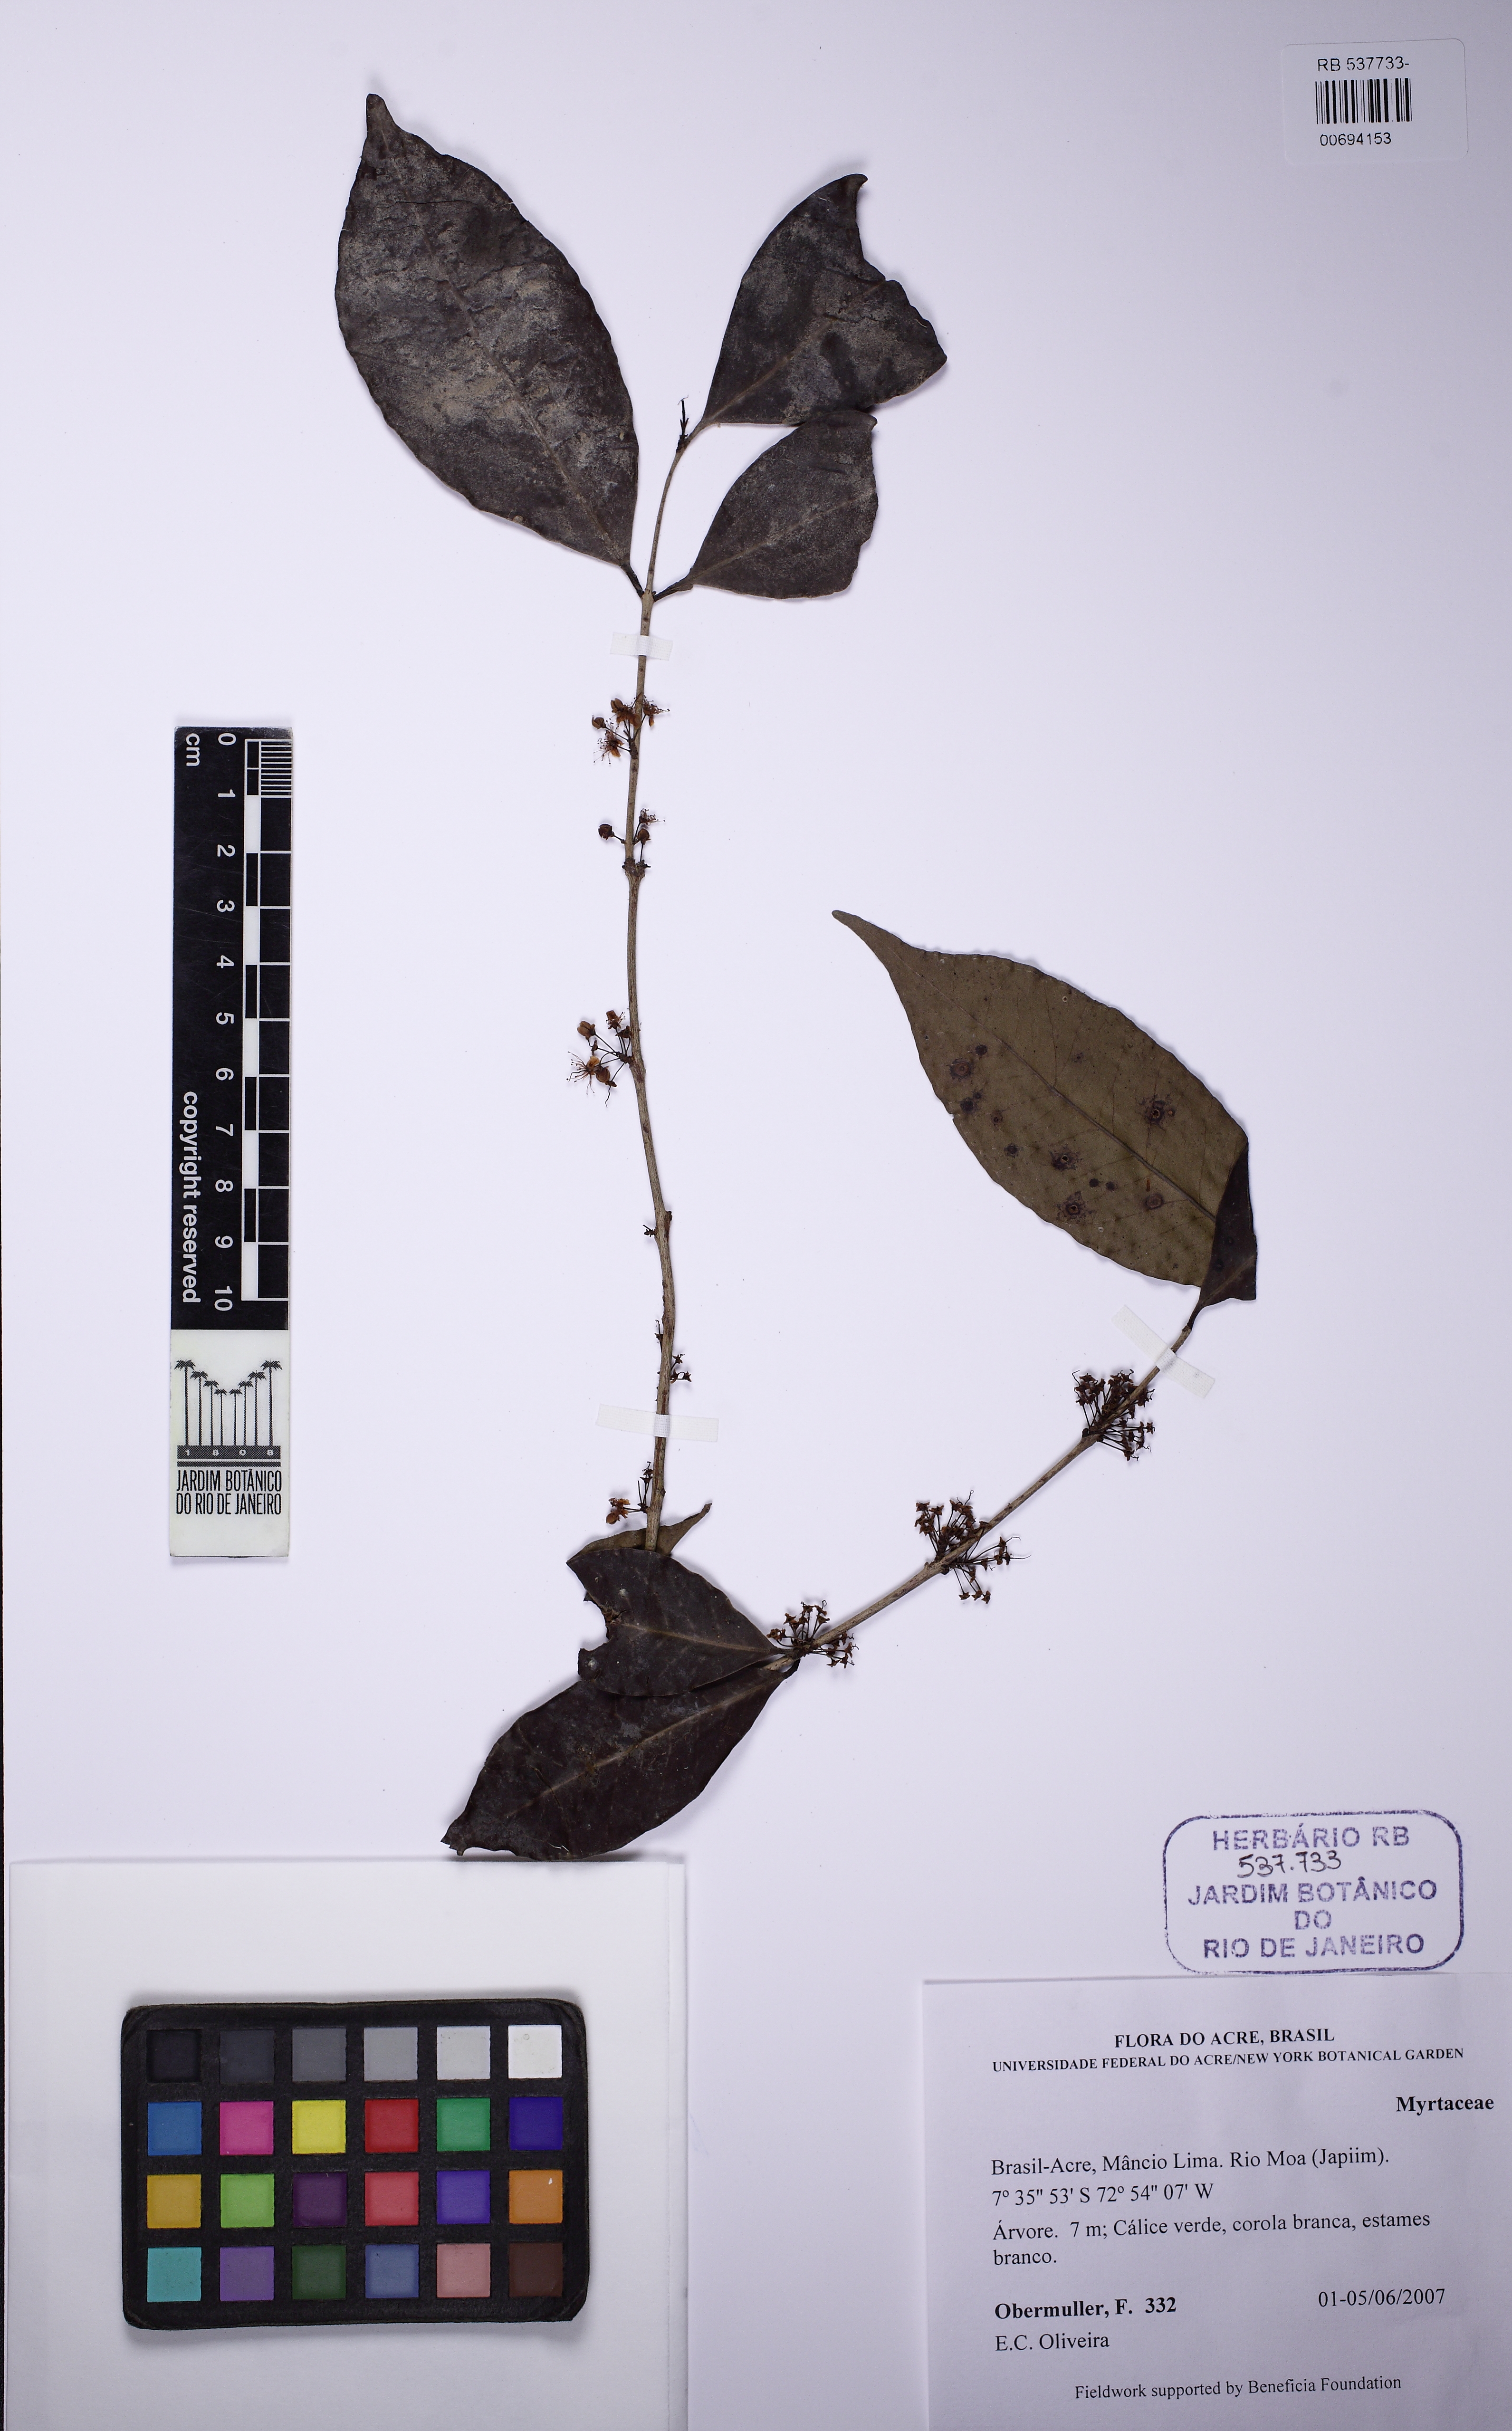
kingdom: Plantae
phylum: Tracheophyta
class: Magnoliopsida
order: Myrtales
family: Myrtaceae
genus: Eugenia
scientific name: Eugenia egensis
